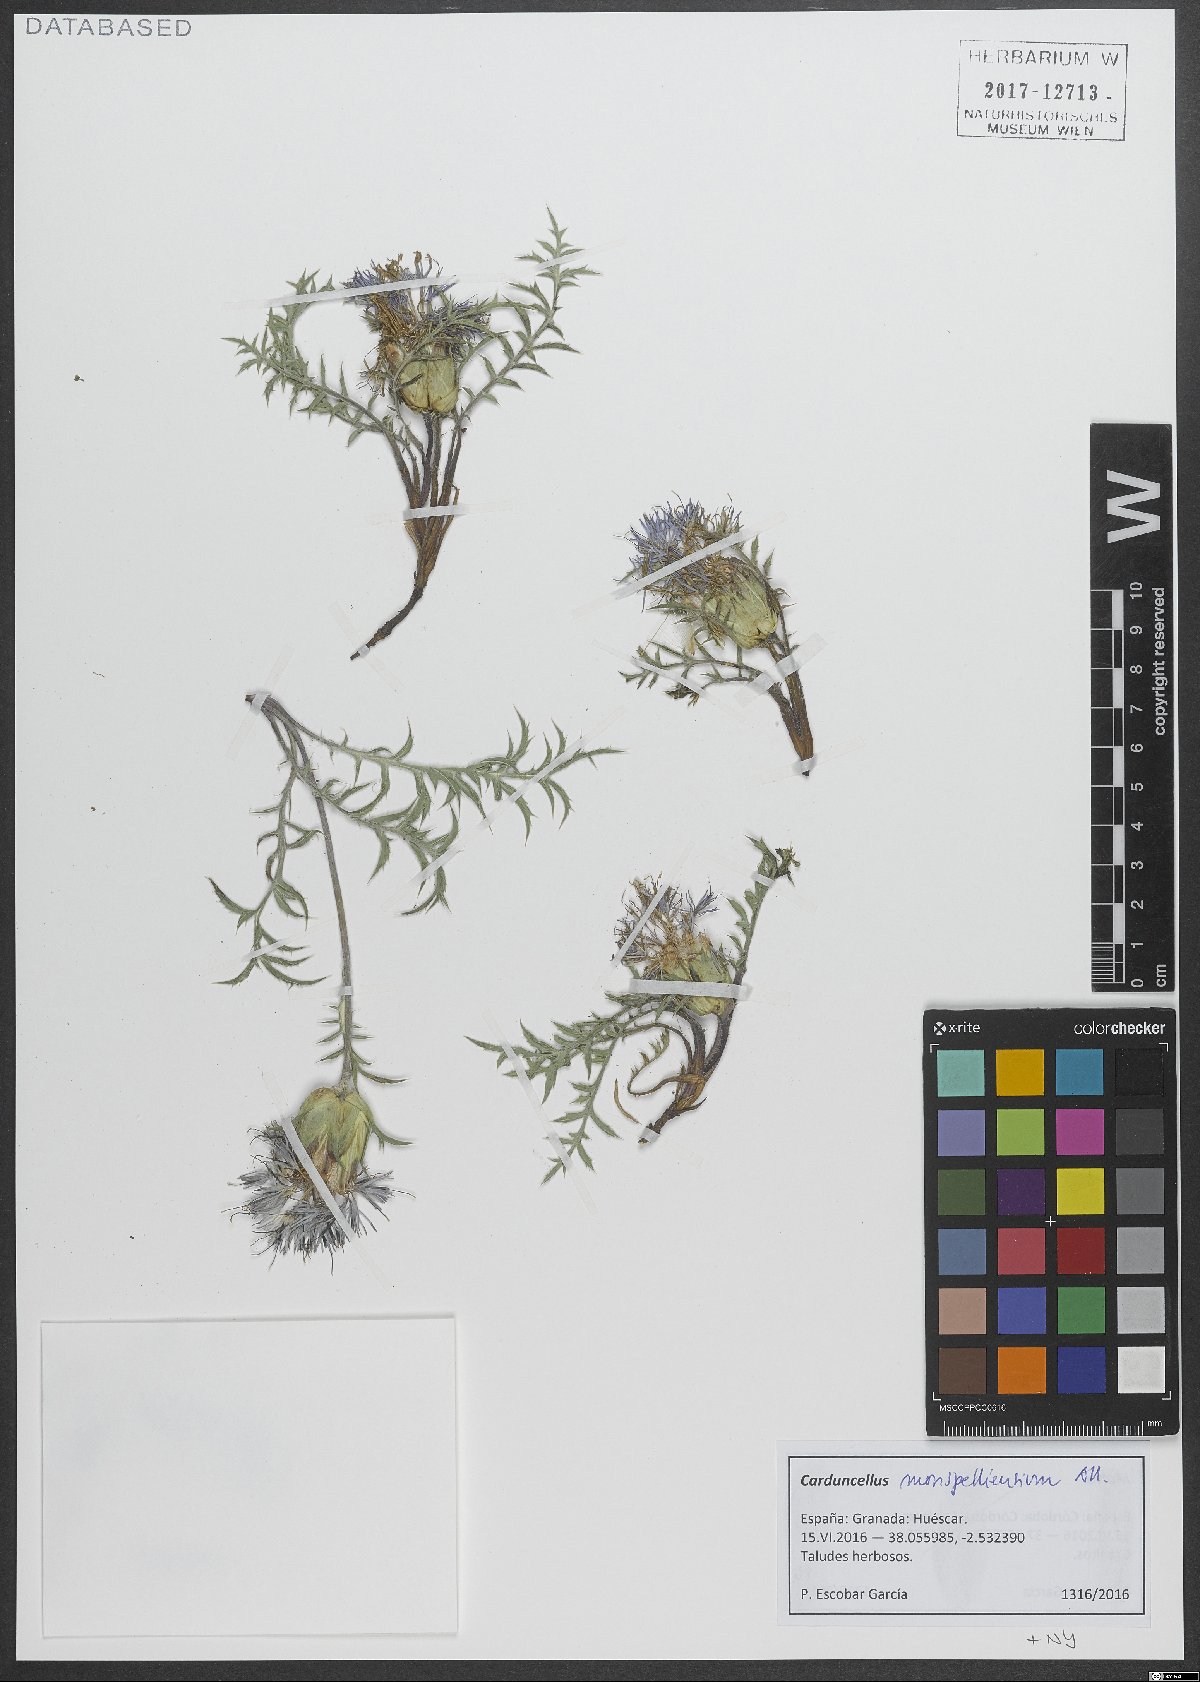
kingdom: Plantae
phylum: Tracheophyta
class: Magnoliopsida
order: Asterales
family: Asteraceae
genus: Carduncellus
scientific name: Carduncellus monspelliensium
